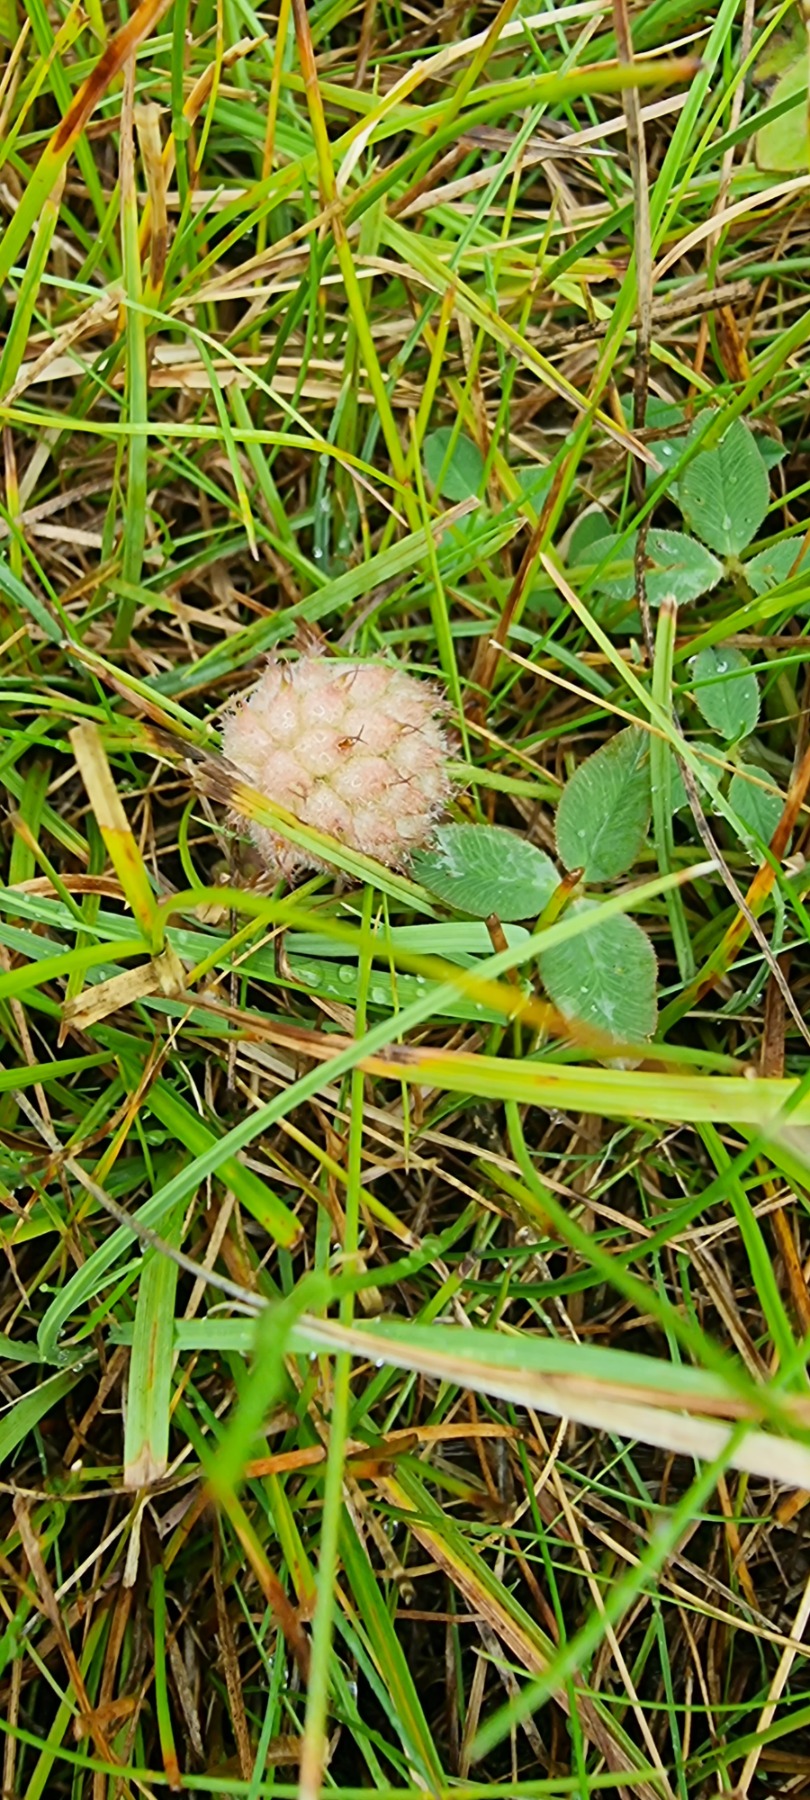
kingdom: Plantae
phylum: Tracheophyta
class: Magnoliopsida
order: Fabales
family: Fabaceae
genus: Trifolium
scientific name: Trifolium fragiferum
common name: Jordbær-kløver
